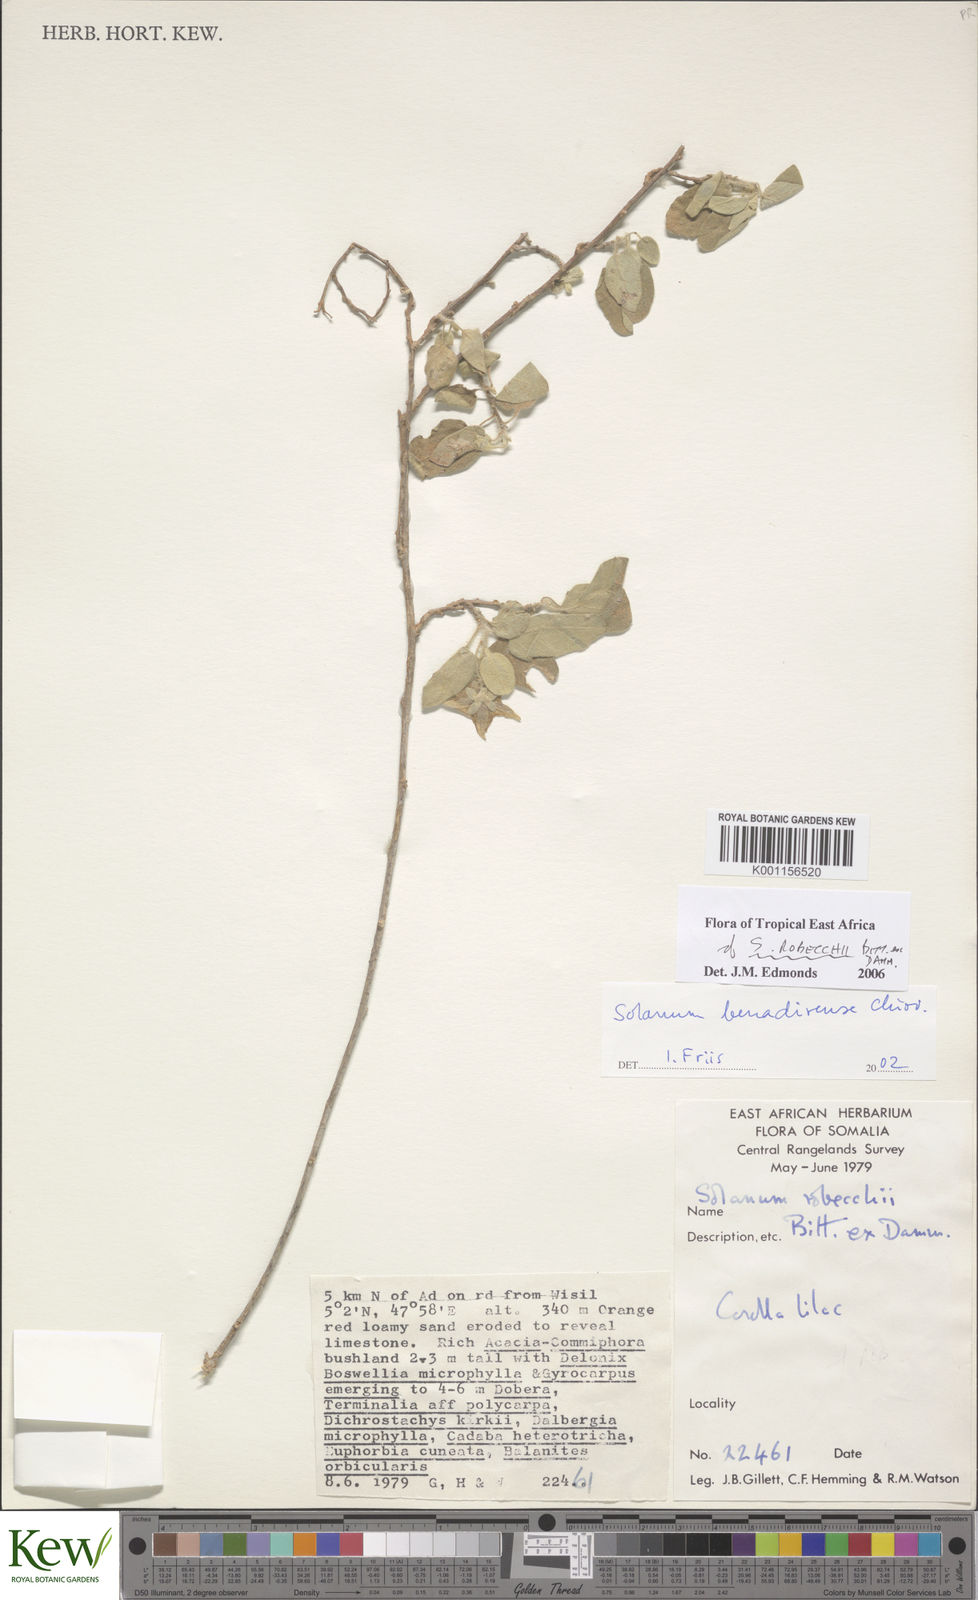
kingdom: Plantae
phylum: Tracheophyta
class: Magnoliopsida
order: Solanales
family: Solanaceae
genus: Solanum
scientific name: Solanum pampaninii
